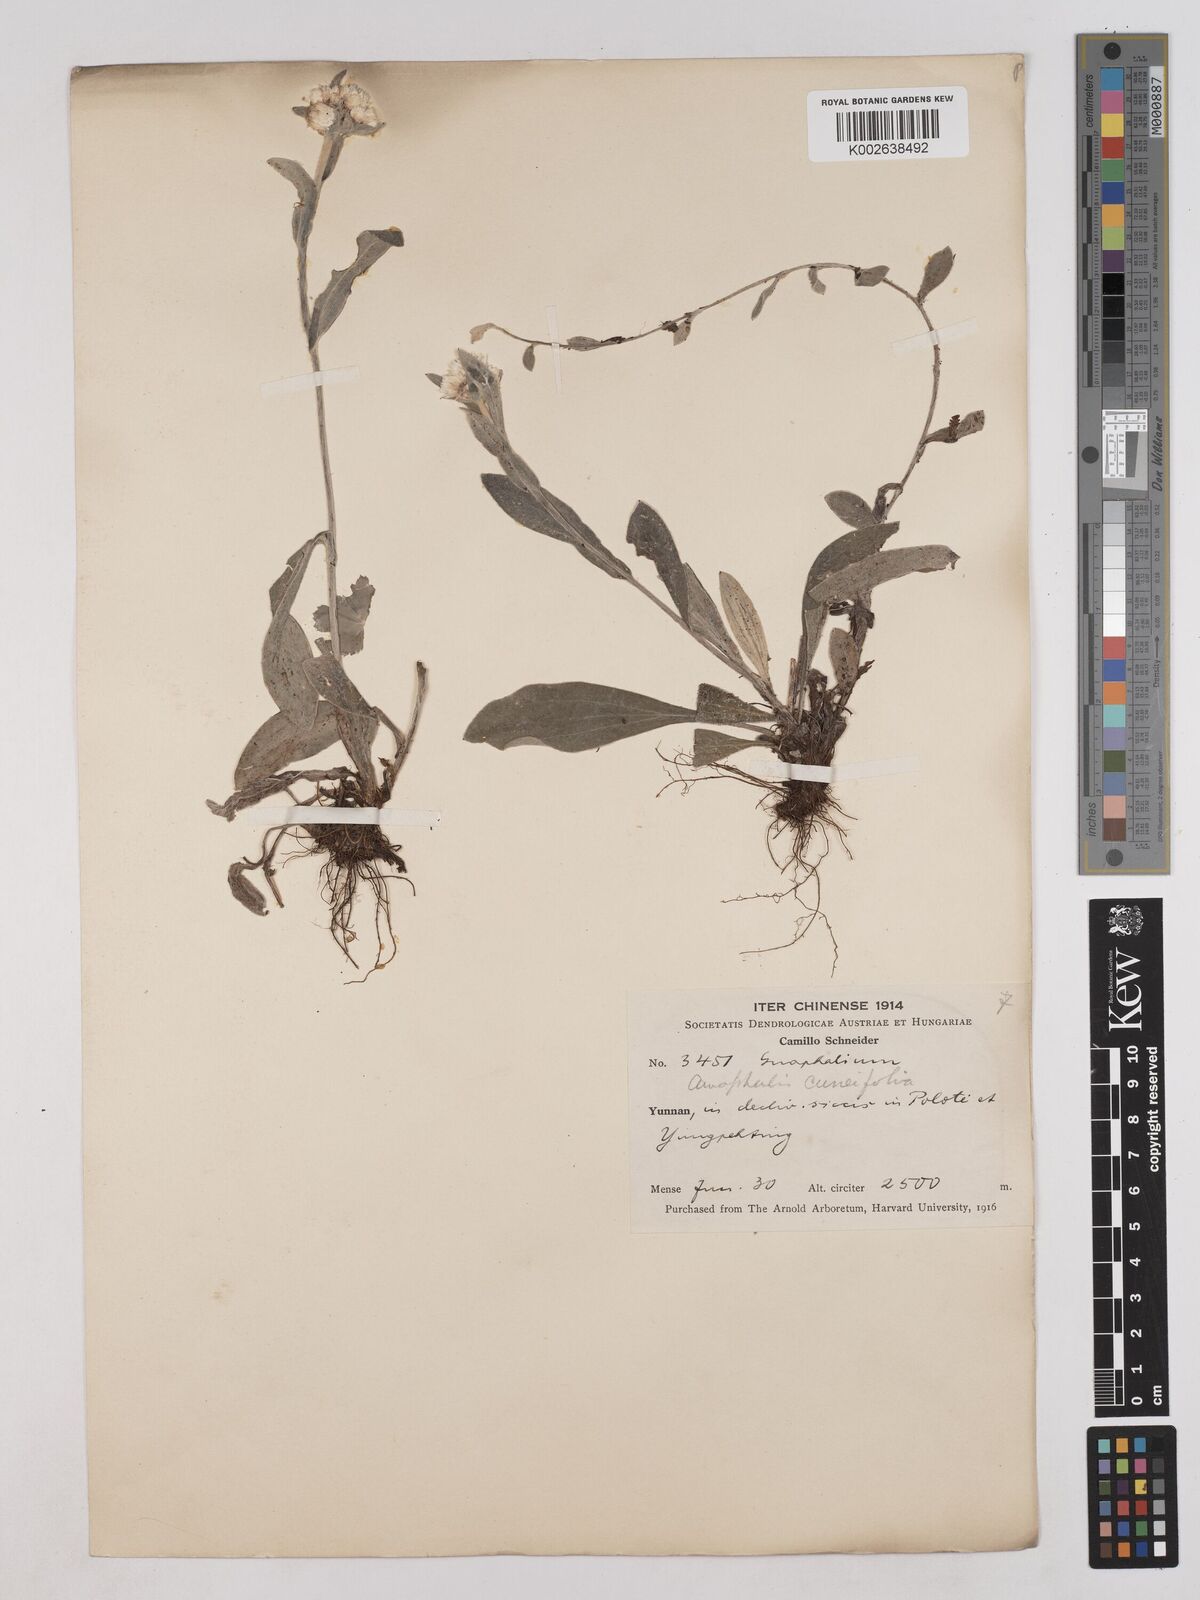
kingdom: Plantae
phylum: Tracheophyta
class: Magnoliopsida
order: Asterales
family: Asteraceae
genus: Anaphalis
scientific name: Anaphalis nepalensis
